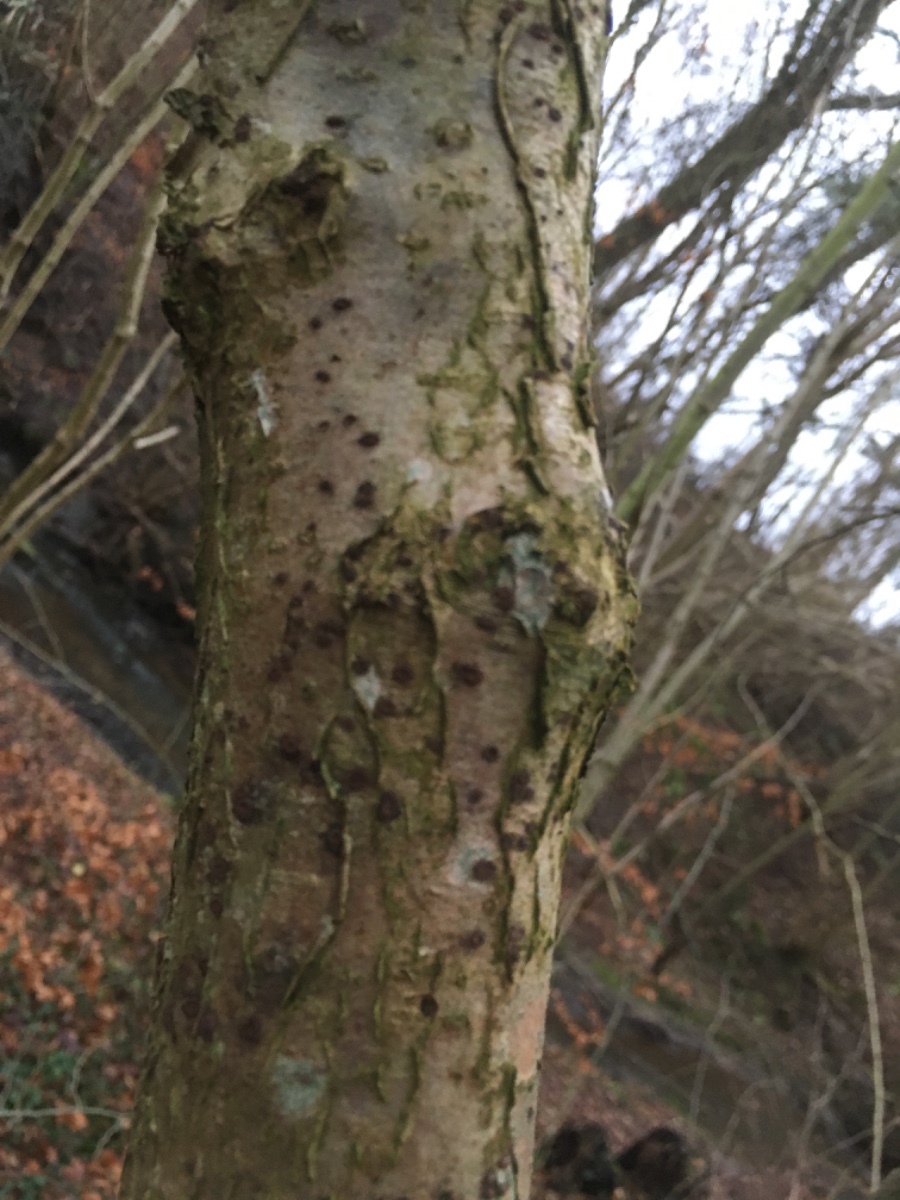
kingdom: Fungi
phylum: Ascomycota
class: Sordariomycetes
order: Xylariales
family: Hypoxylaceae
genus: Hypoxylon
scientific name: Hypoxylon fuscum
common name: kegleformet kulbær
